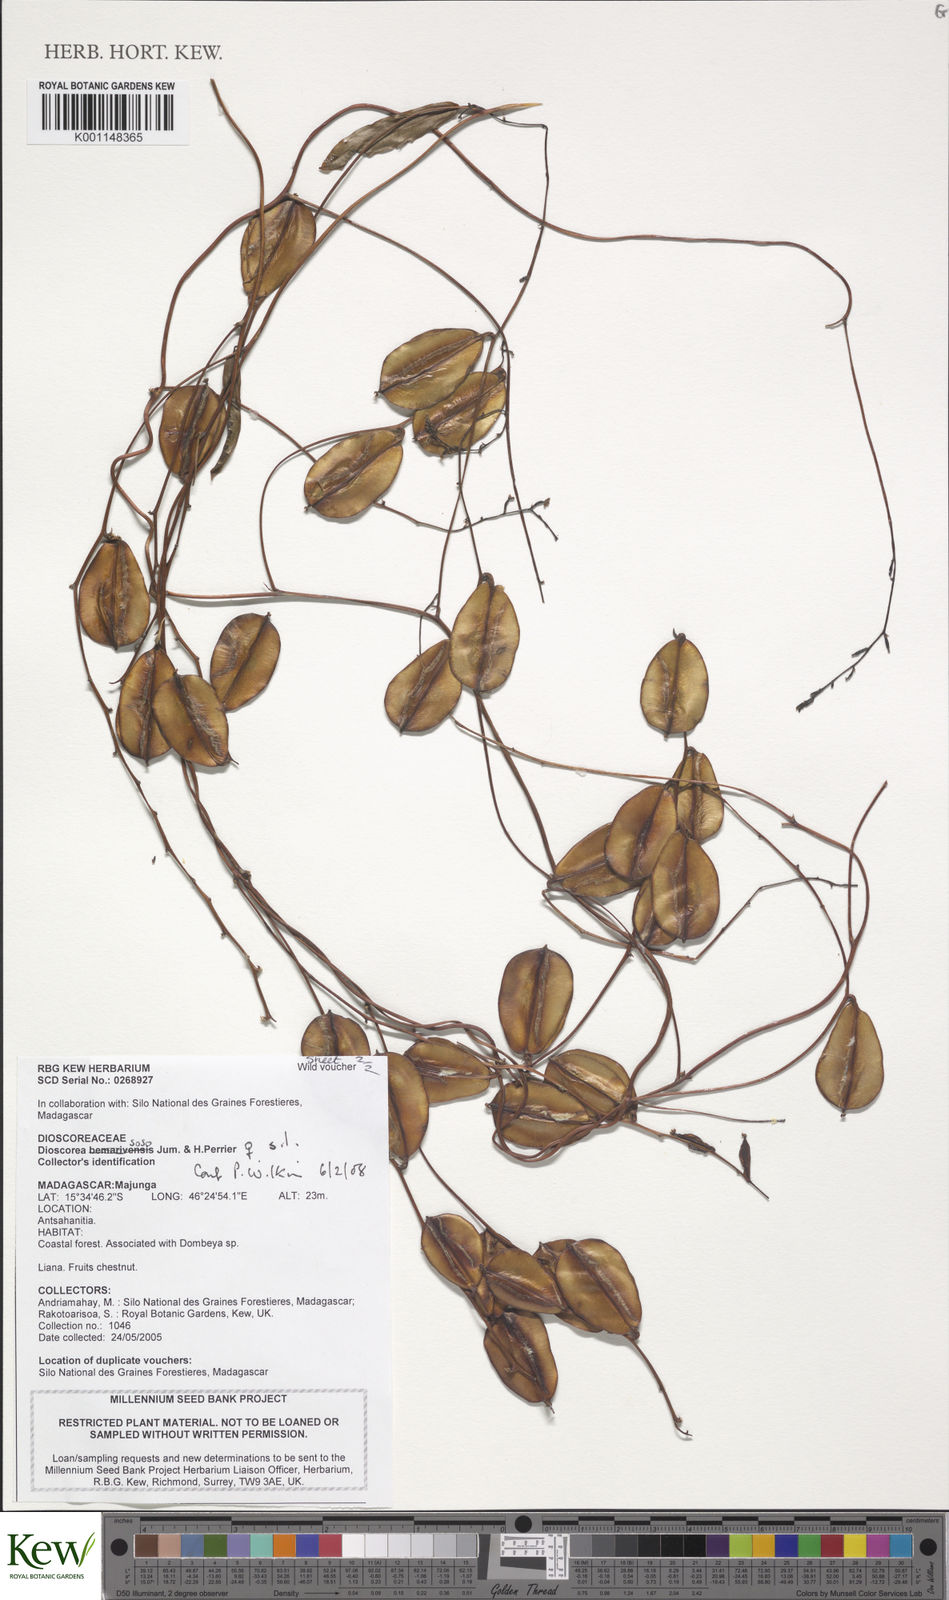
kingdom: Plantae
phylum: Tracheophyta
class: Liliopsida
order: Dioscoreales
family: Dioscoreaceae
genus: Dioscorea
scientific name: Dioscorea soso
